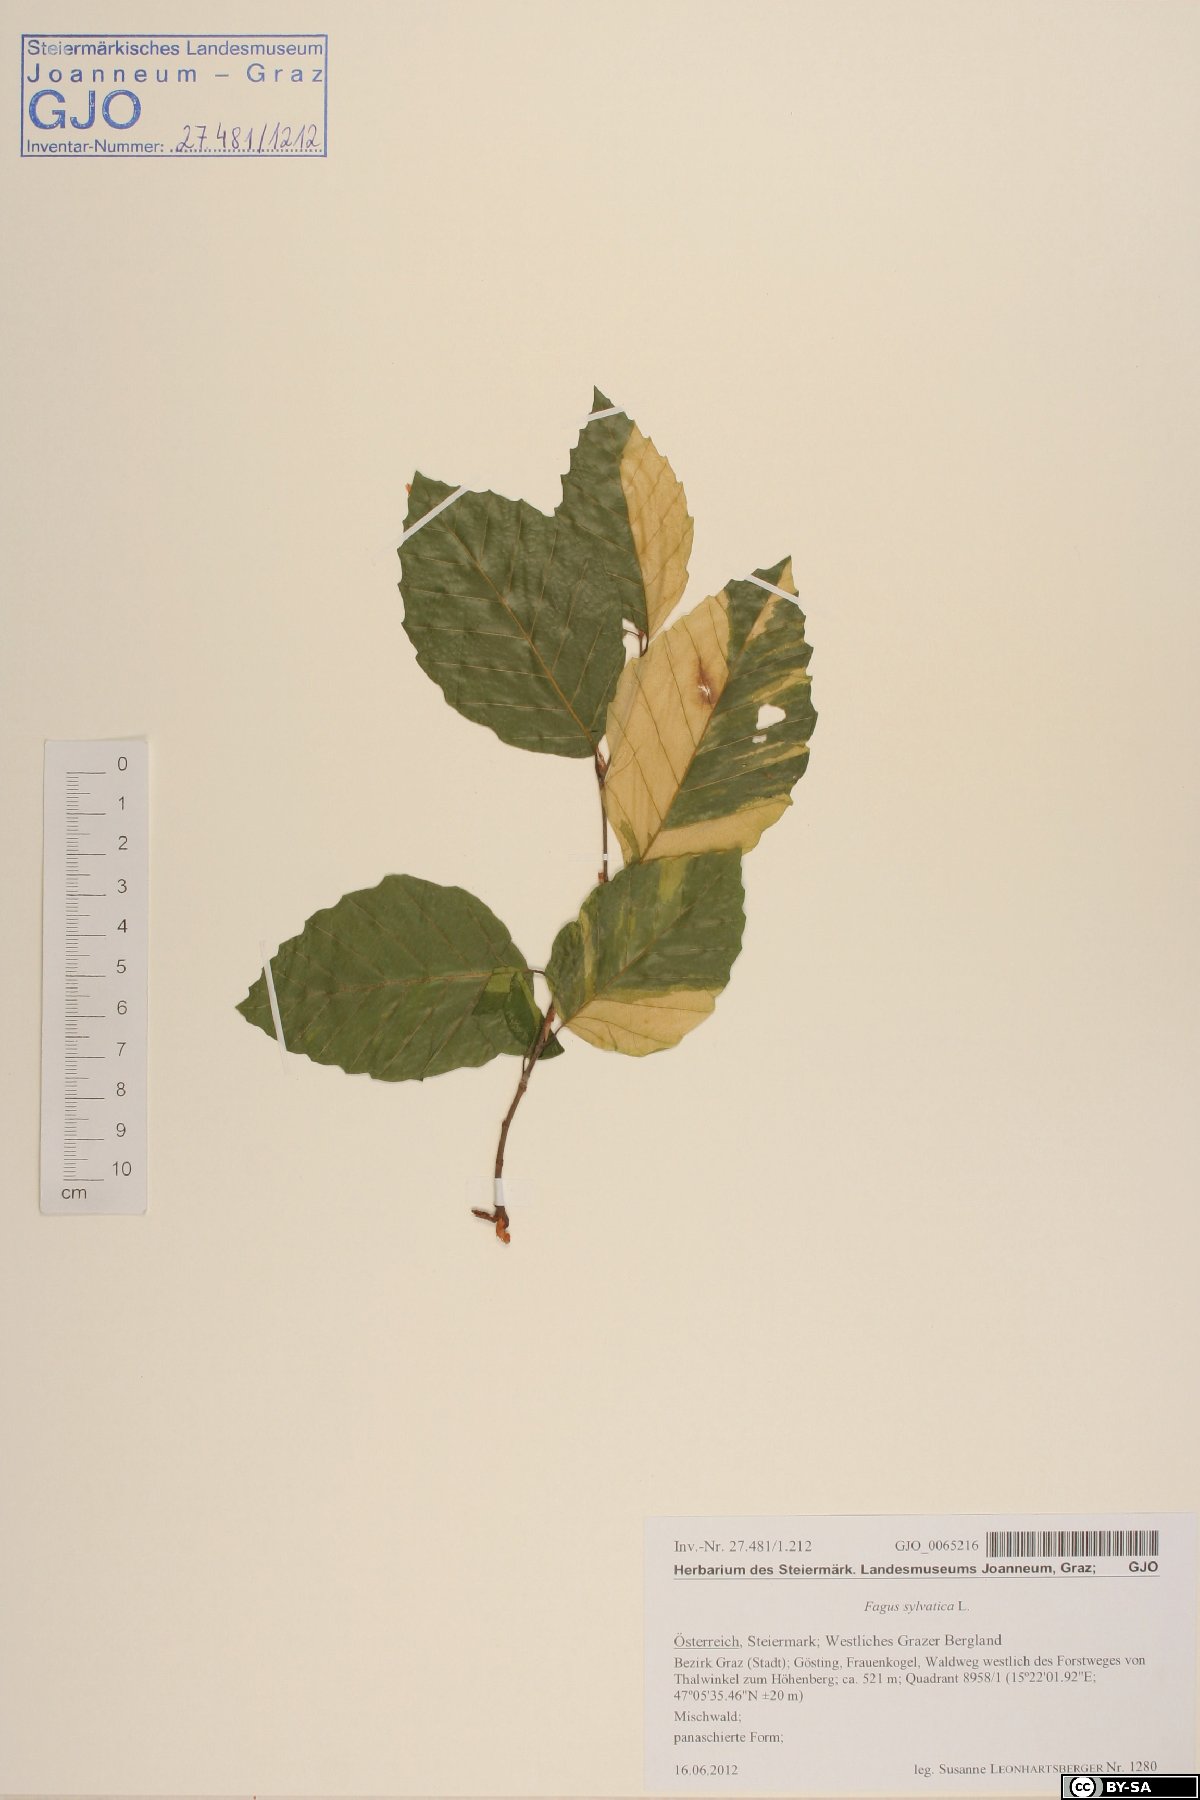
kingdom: Plantae
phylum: Tracheophyta
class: Magnoliopsida
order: Fagales
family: Fagaceae
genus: Fagus
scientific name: Fagus sylvatica
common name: Beech
